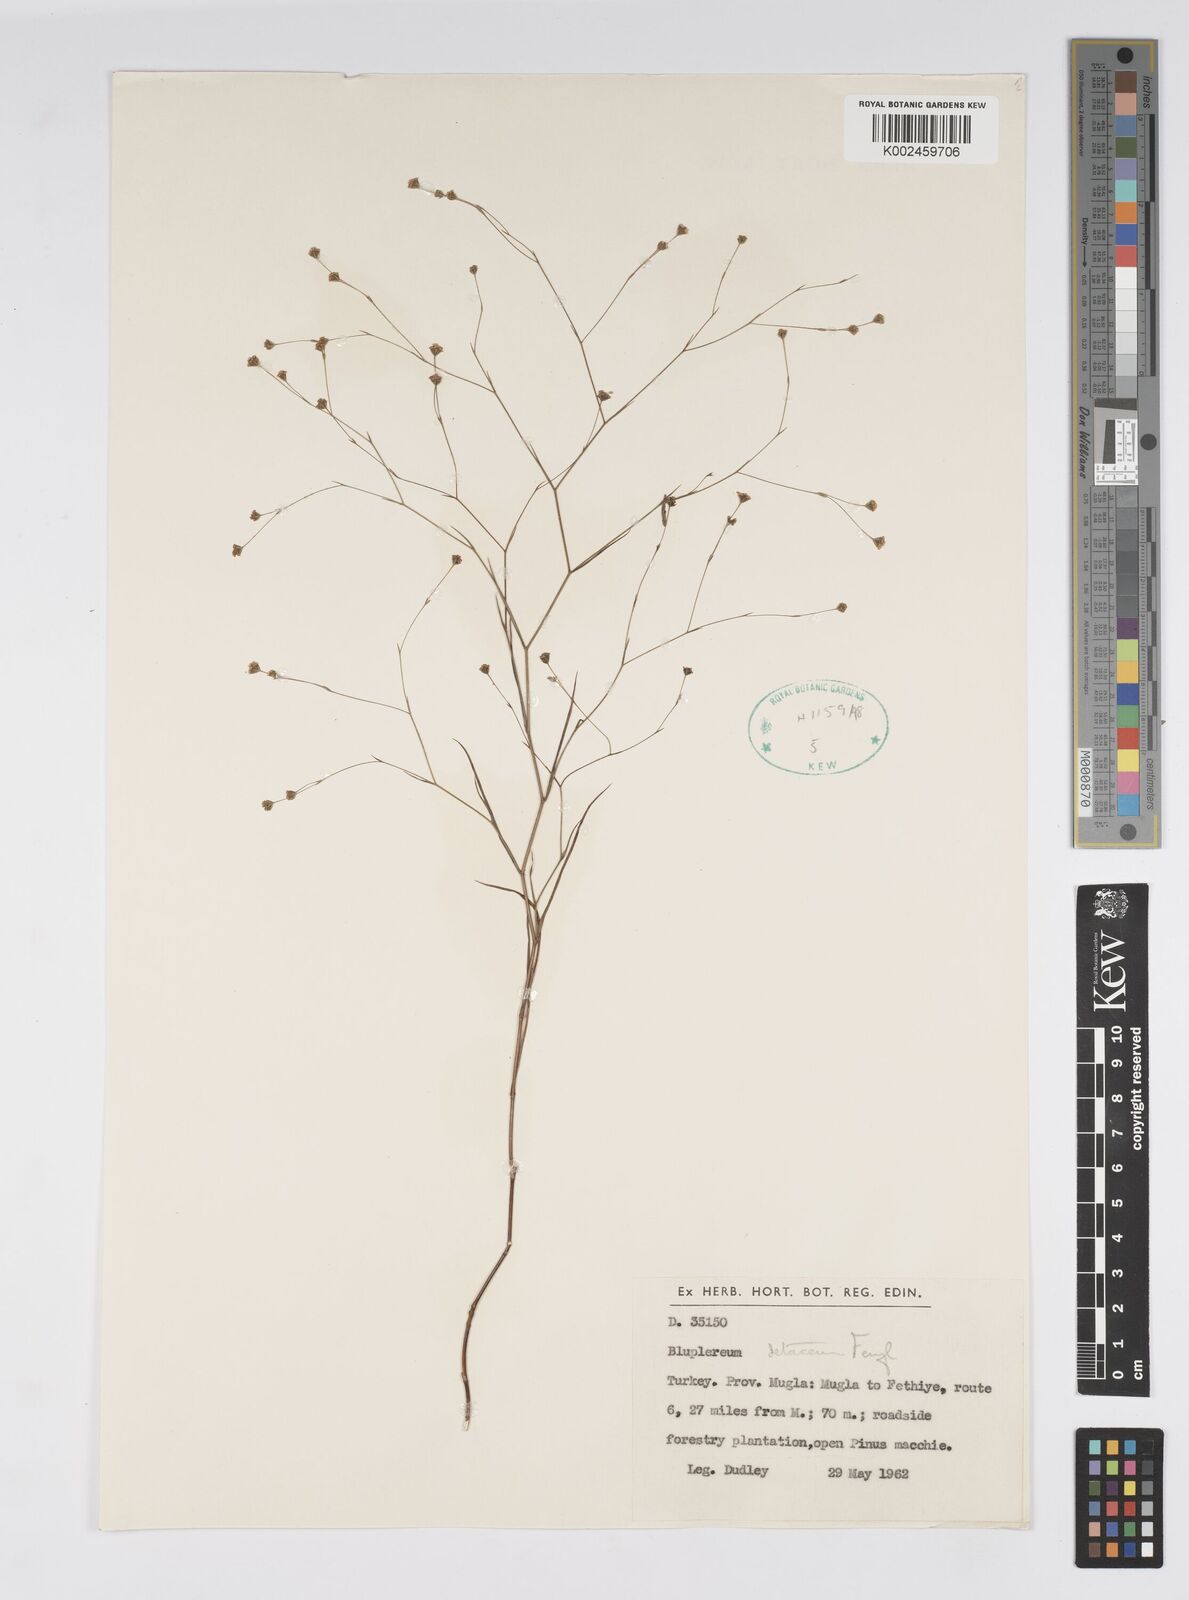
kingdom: Plantae
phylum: Tracheophyta
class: Magnoliopsida
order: Apiales
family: Apiaceae
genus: Bupleurum
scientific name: Bupleurum setaceum
